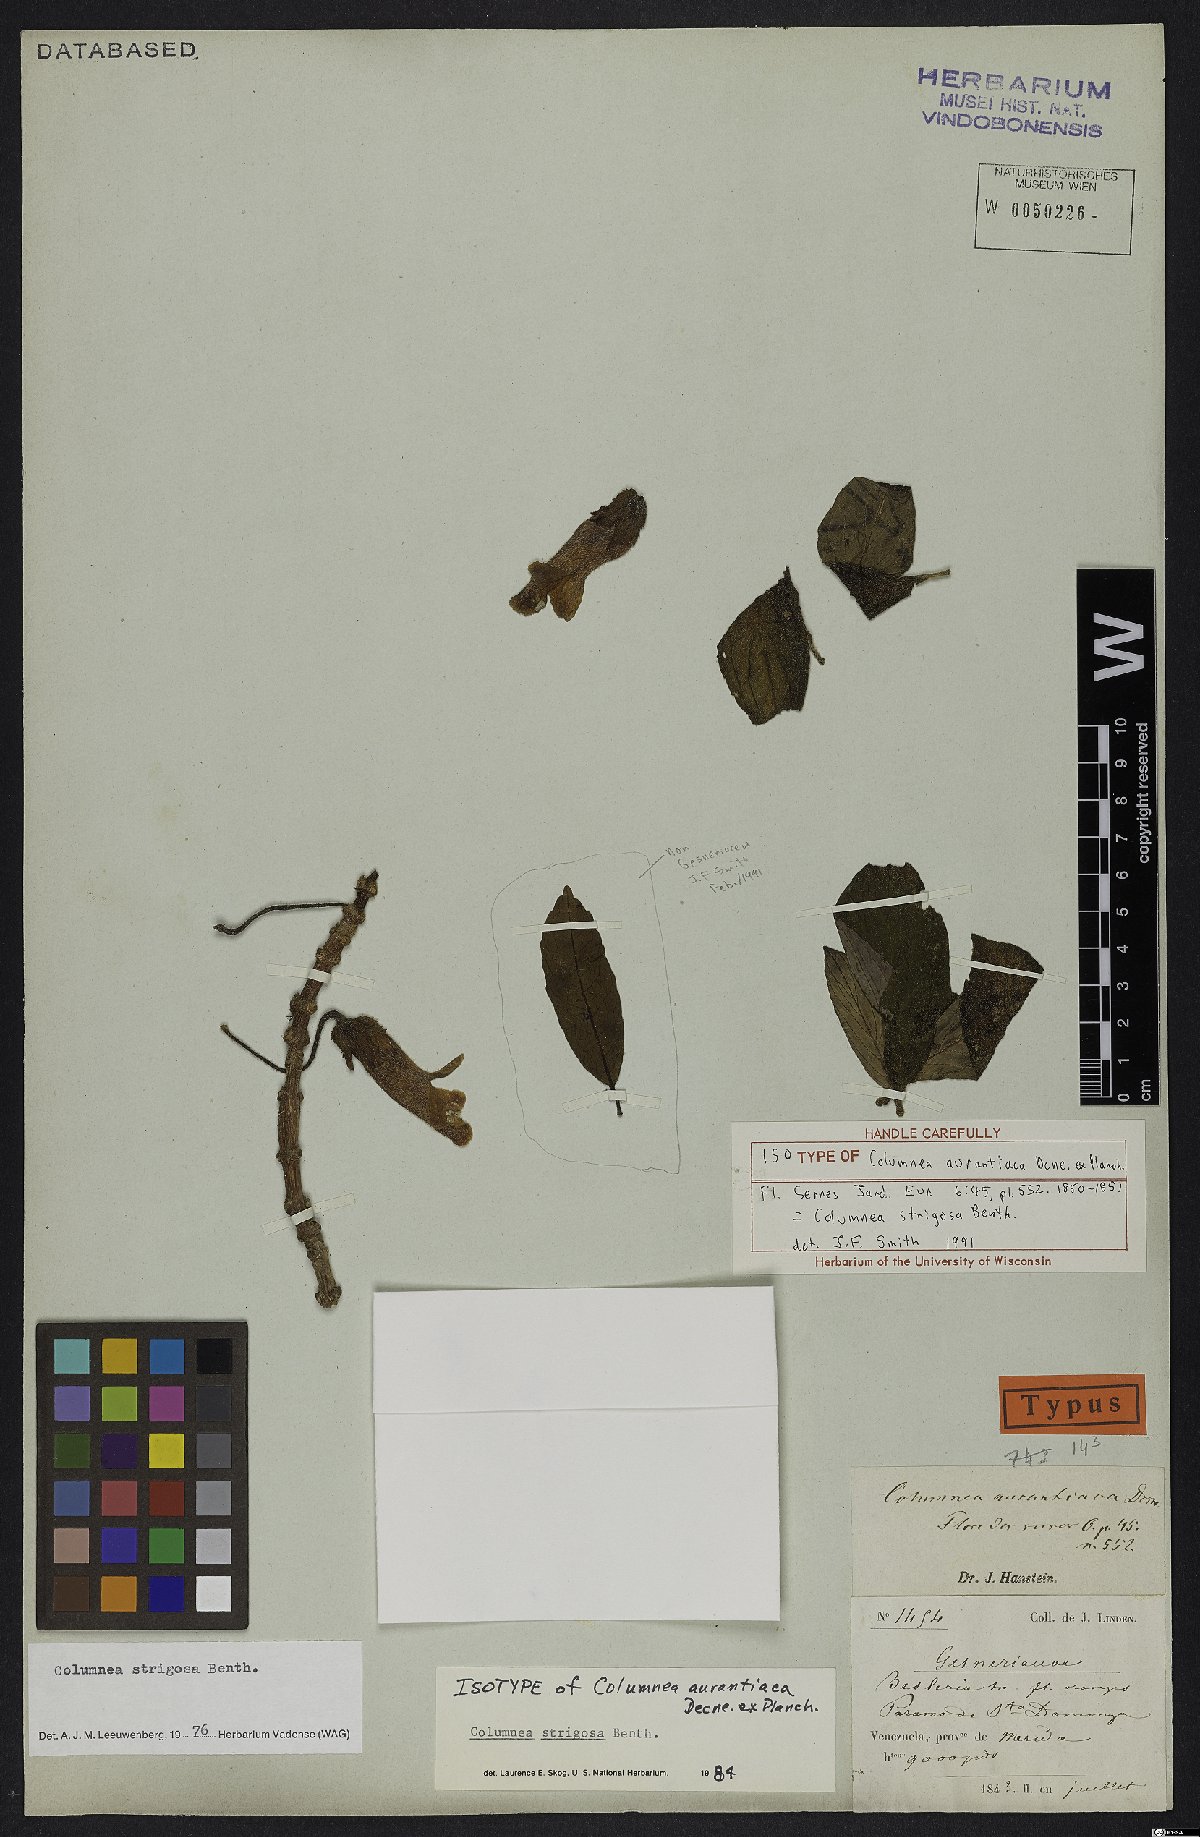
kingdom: Plantae
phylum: Tracheophyta
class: Magnoliopsida
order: Lamiales
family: Gesneriaceae
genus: Columnea
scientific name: Columnea strigosa
